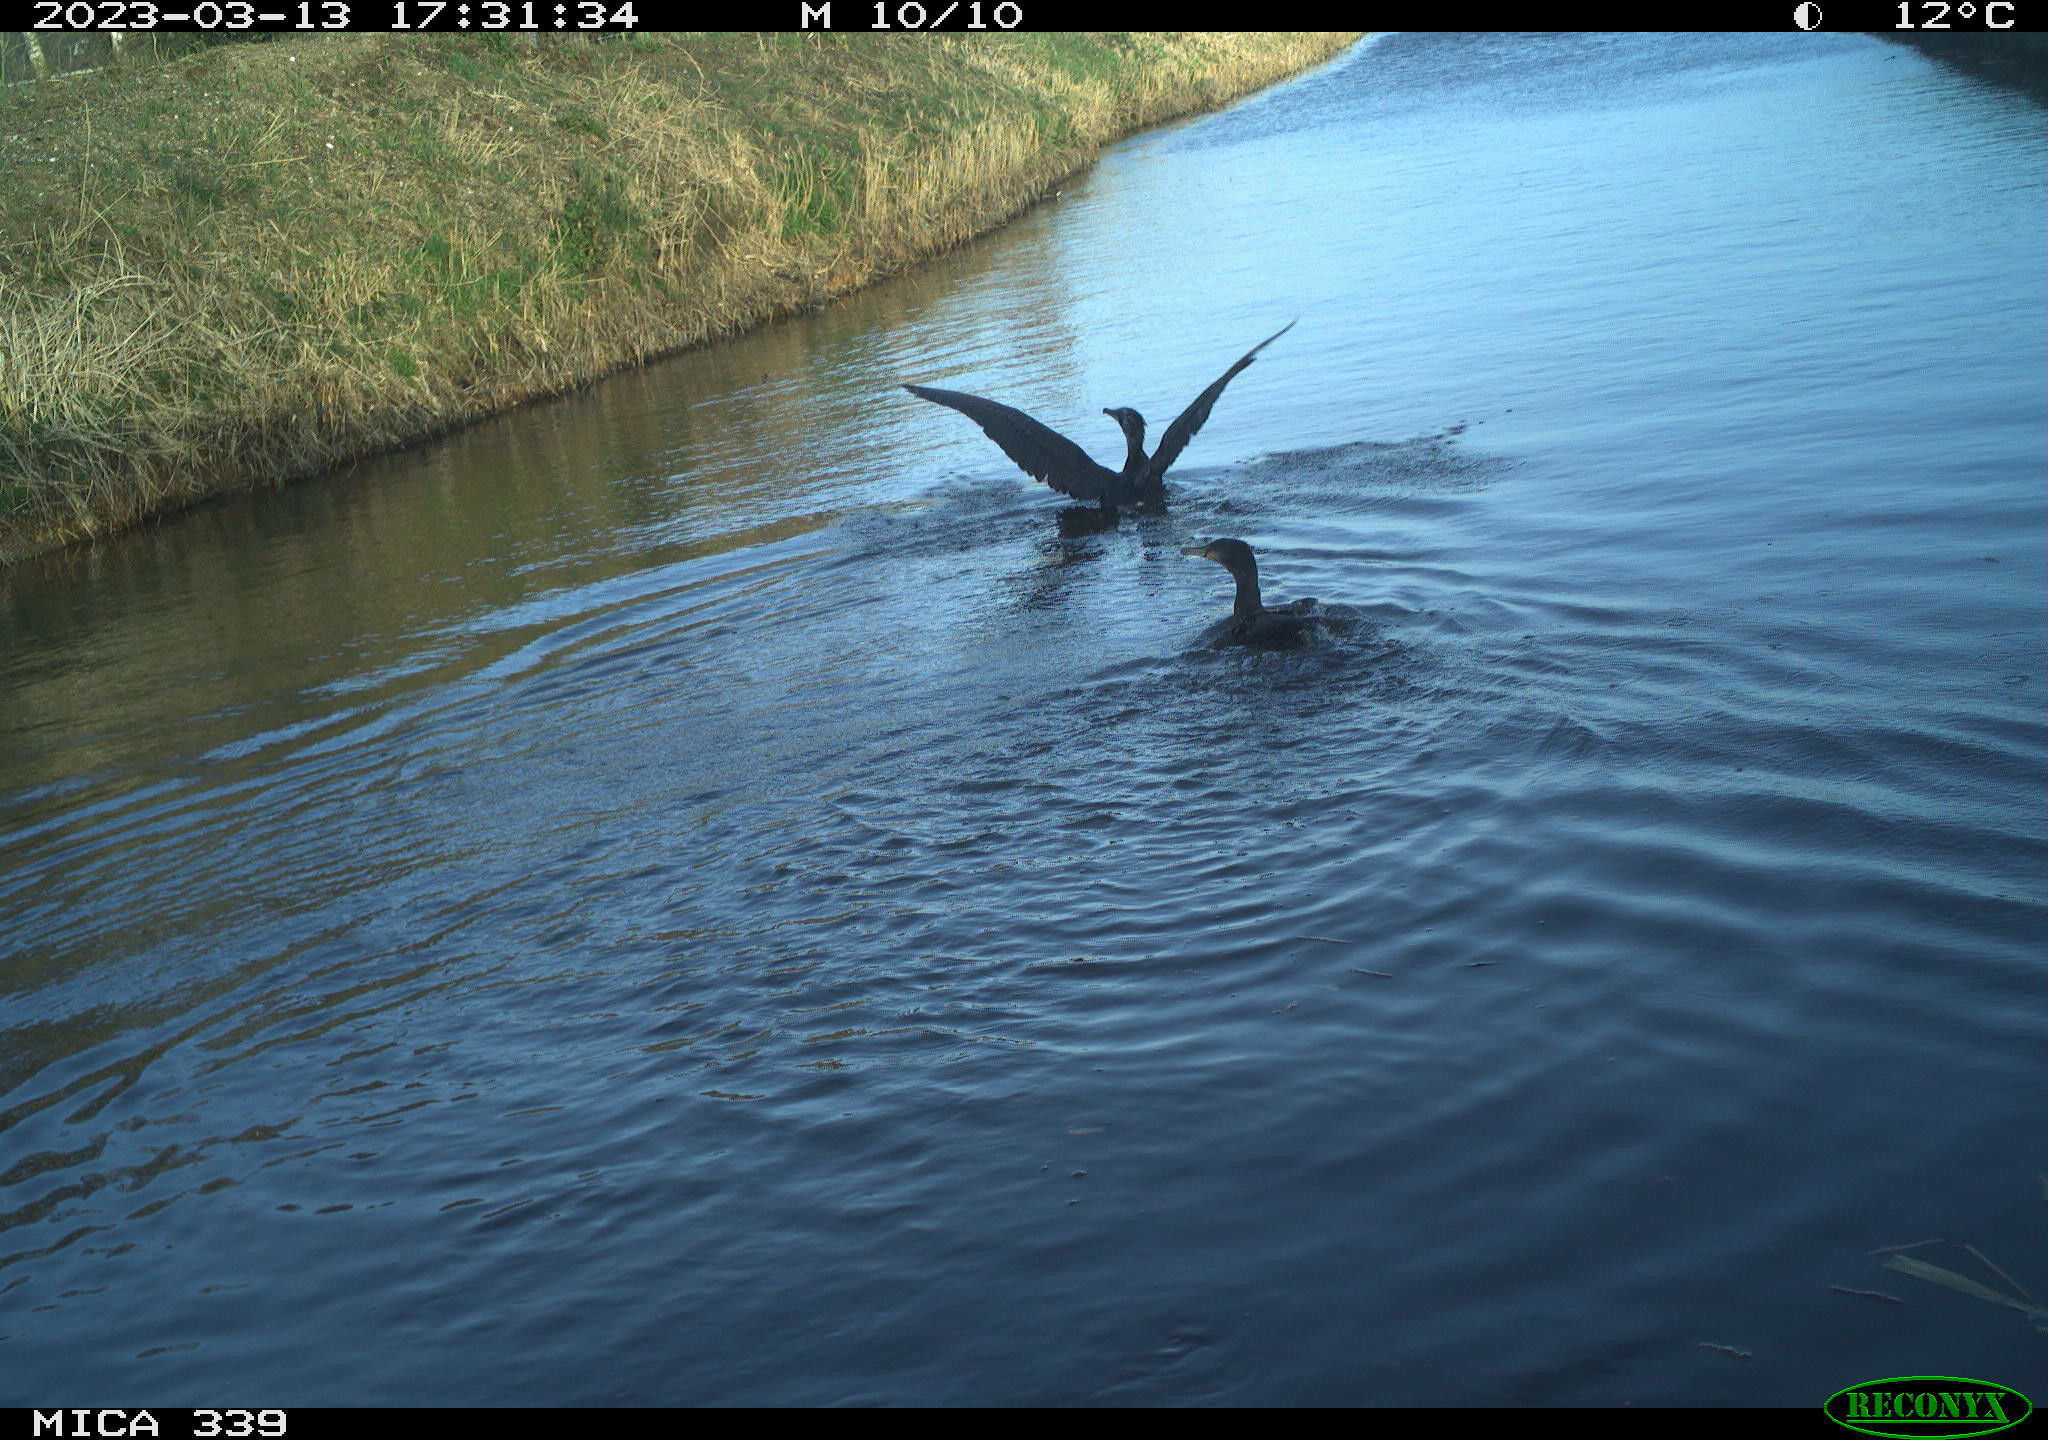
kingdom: Animalia
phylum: Chordata
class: Aves
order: Suliformes
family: Phalacrocoracidae
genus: Phalacrocorax
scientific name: Phalacrocorax carbo
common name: Great cormorant
